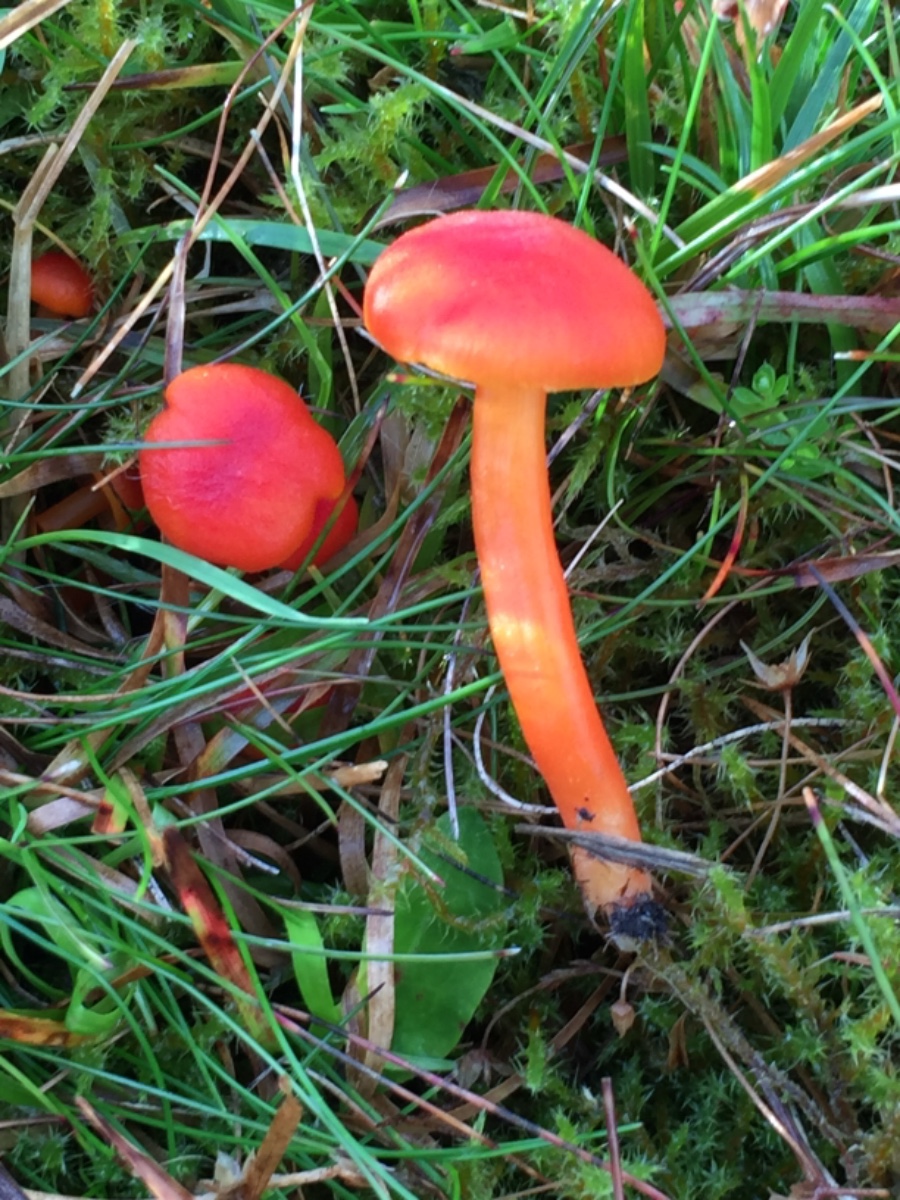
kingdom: Fungi
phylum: Basidiomycota
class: Agaricomycetes
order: Agaricales
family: Hygrophoraceae
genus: Hygrocybe
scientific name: Hygrocybe miniata
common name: mønje-vokshat
